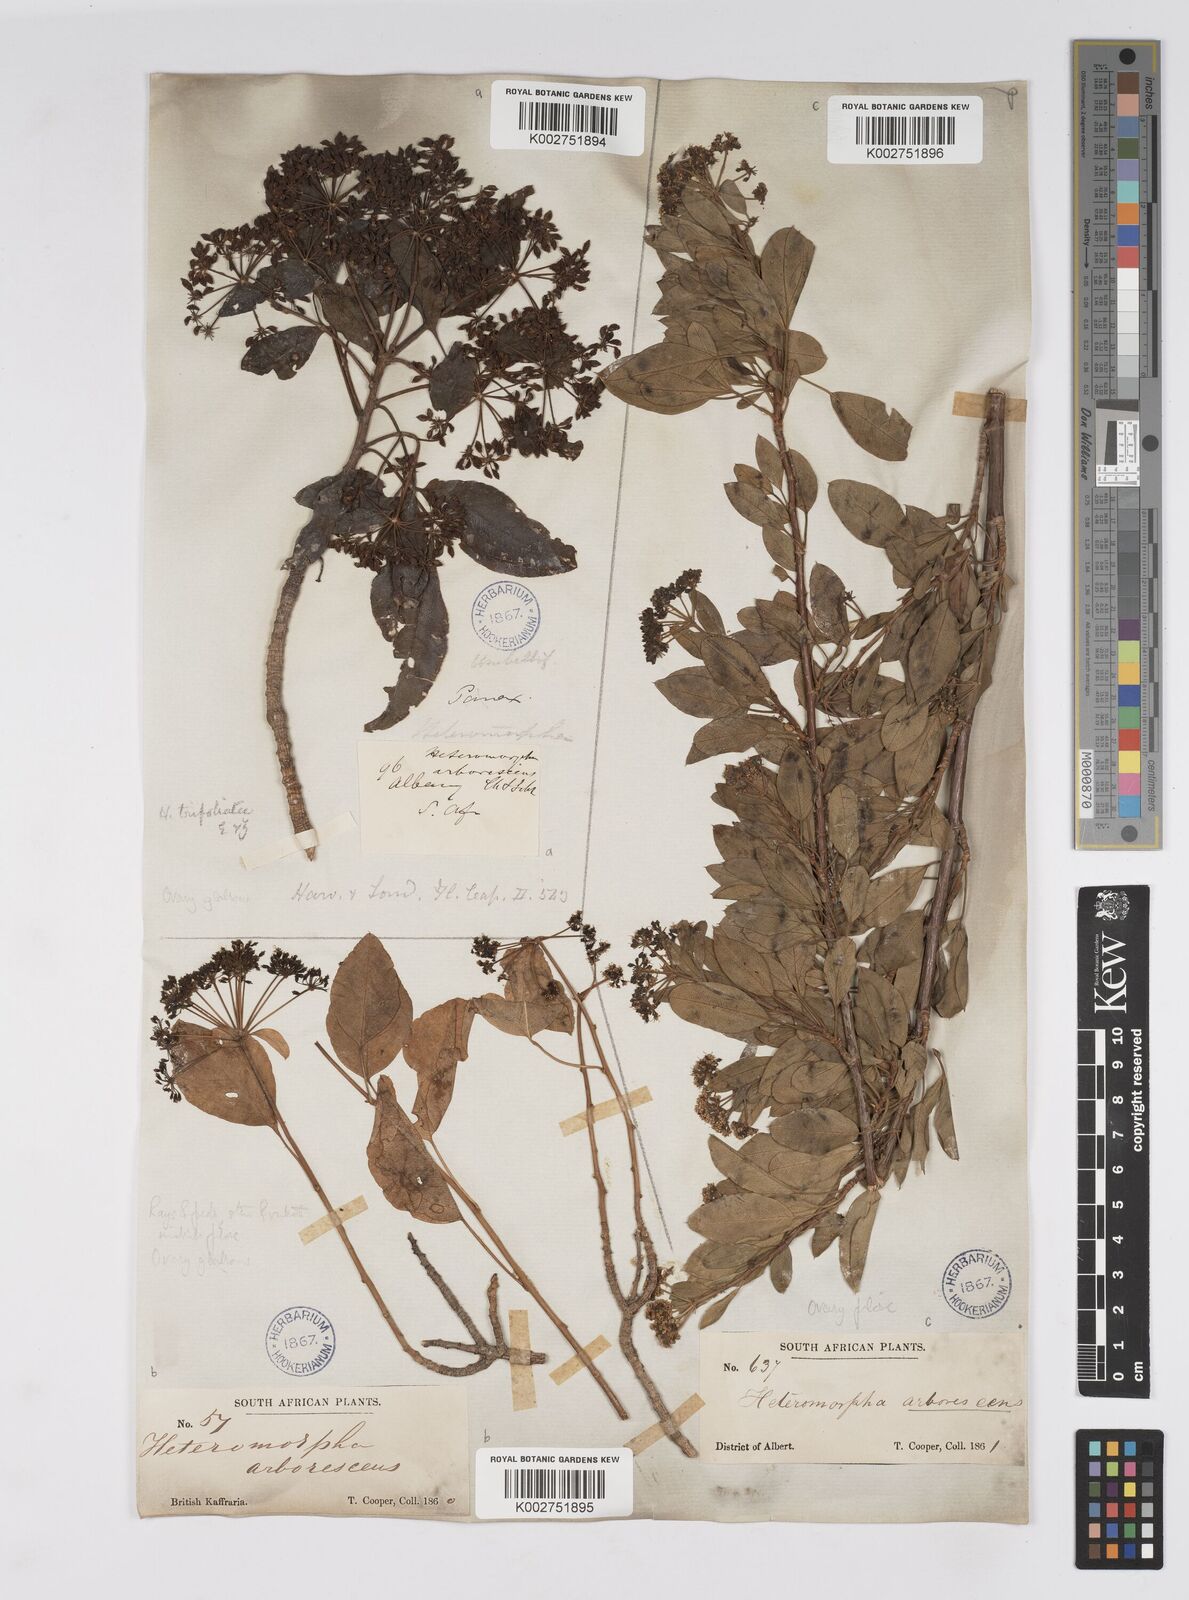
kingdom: Plantae
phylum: Tracheophyta
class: Magnoliopsida
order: Apiales
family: Apiaceae
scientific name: Apiaceae
